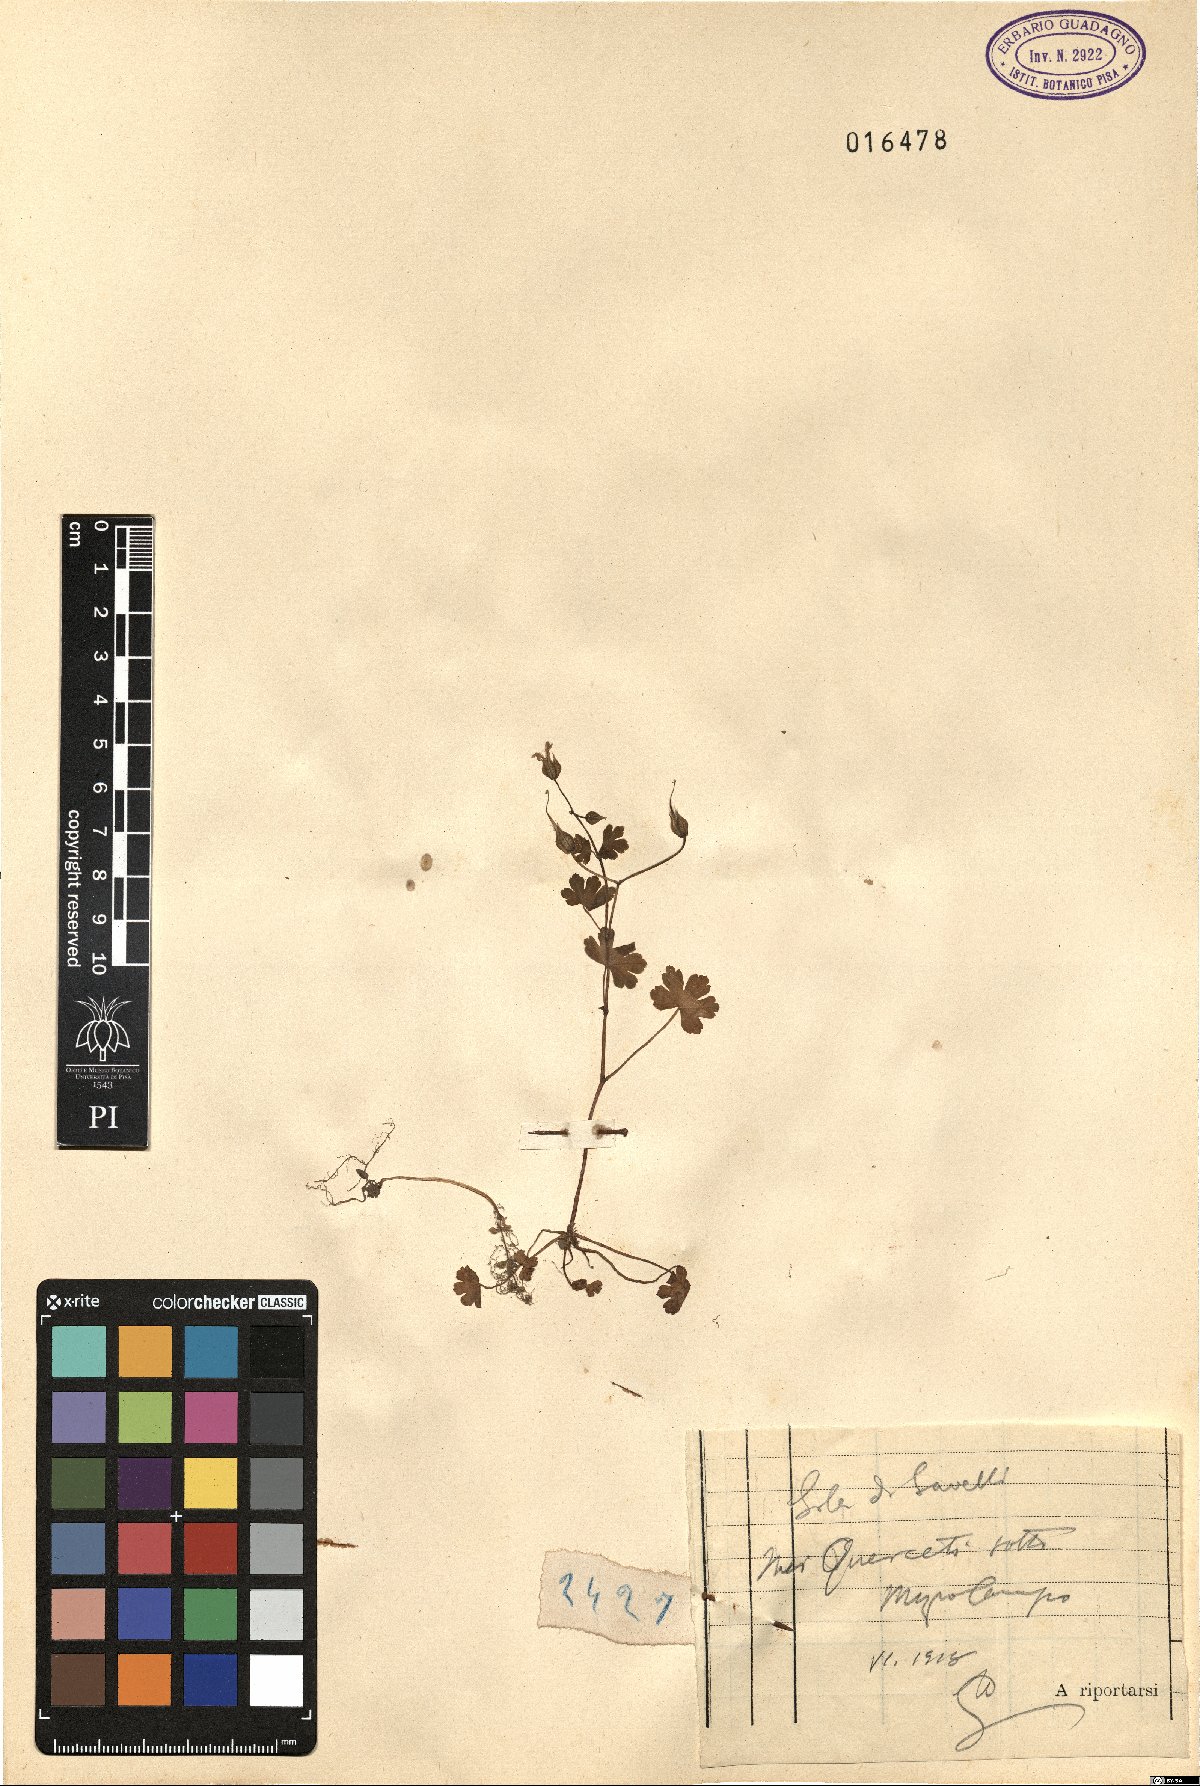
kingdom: Plantae
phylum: Tracheophyta
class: Magnoliopsida
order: Geraniales
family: Geraniaceae
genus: Geranium
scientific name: Geranium
